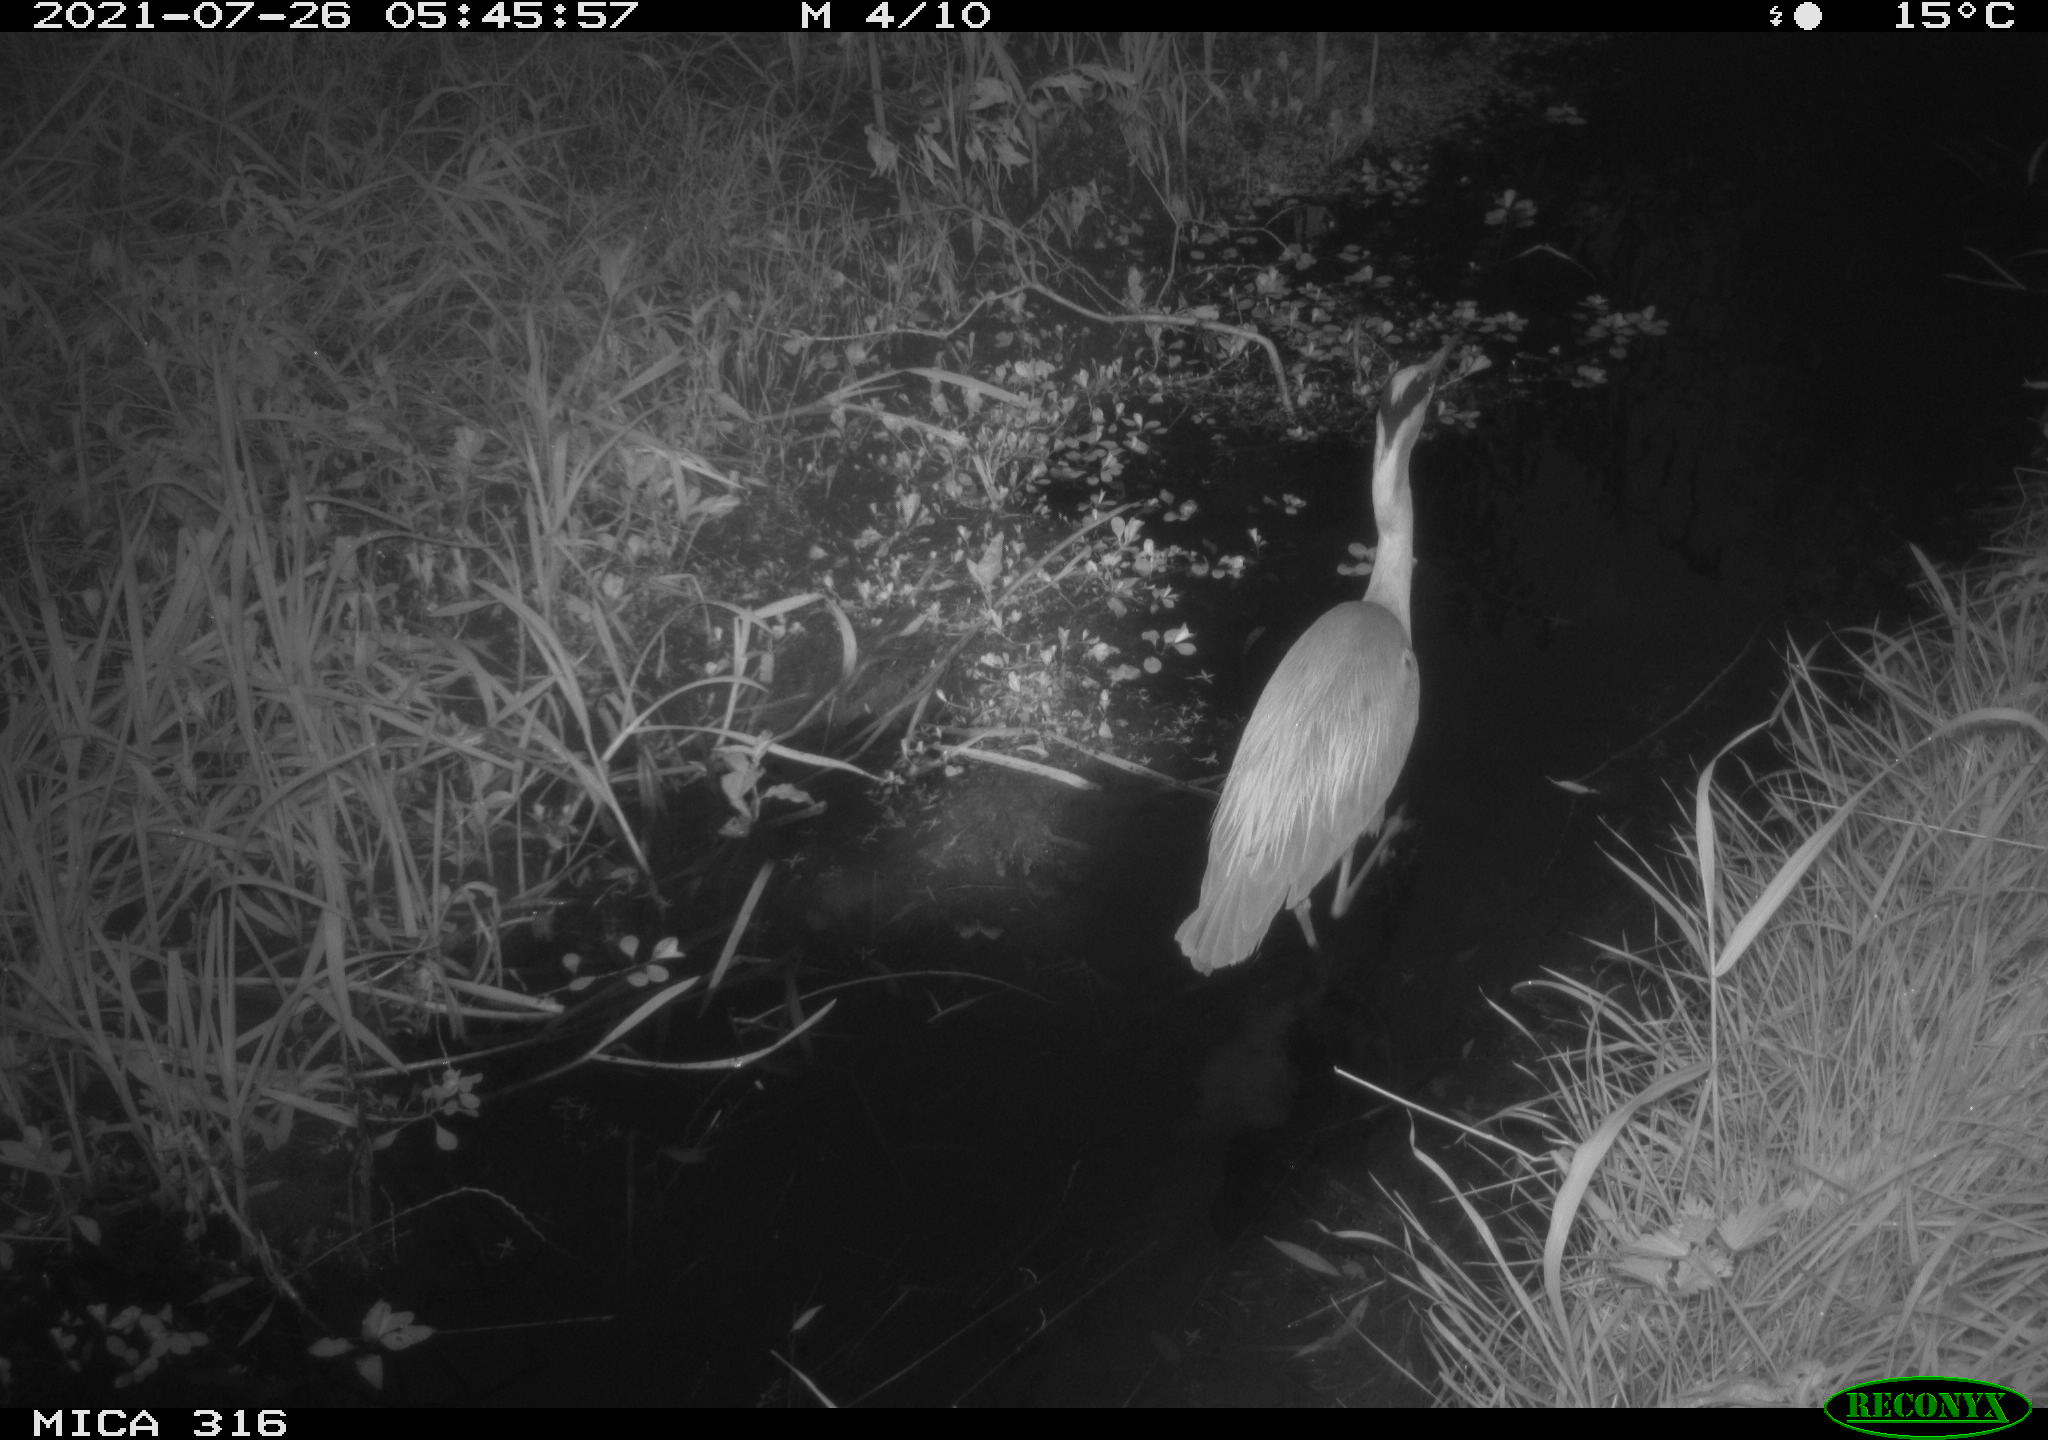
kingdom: Animalia
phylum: Chordata
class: Aves
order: Pelecaniformes
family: Ardeidae
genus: Ardea
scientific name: Ardea
